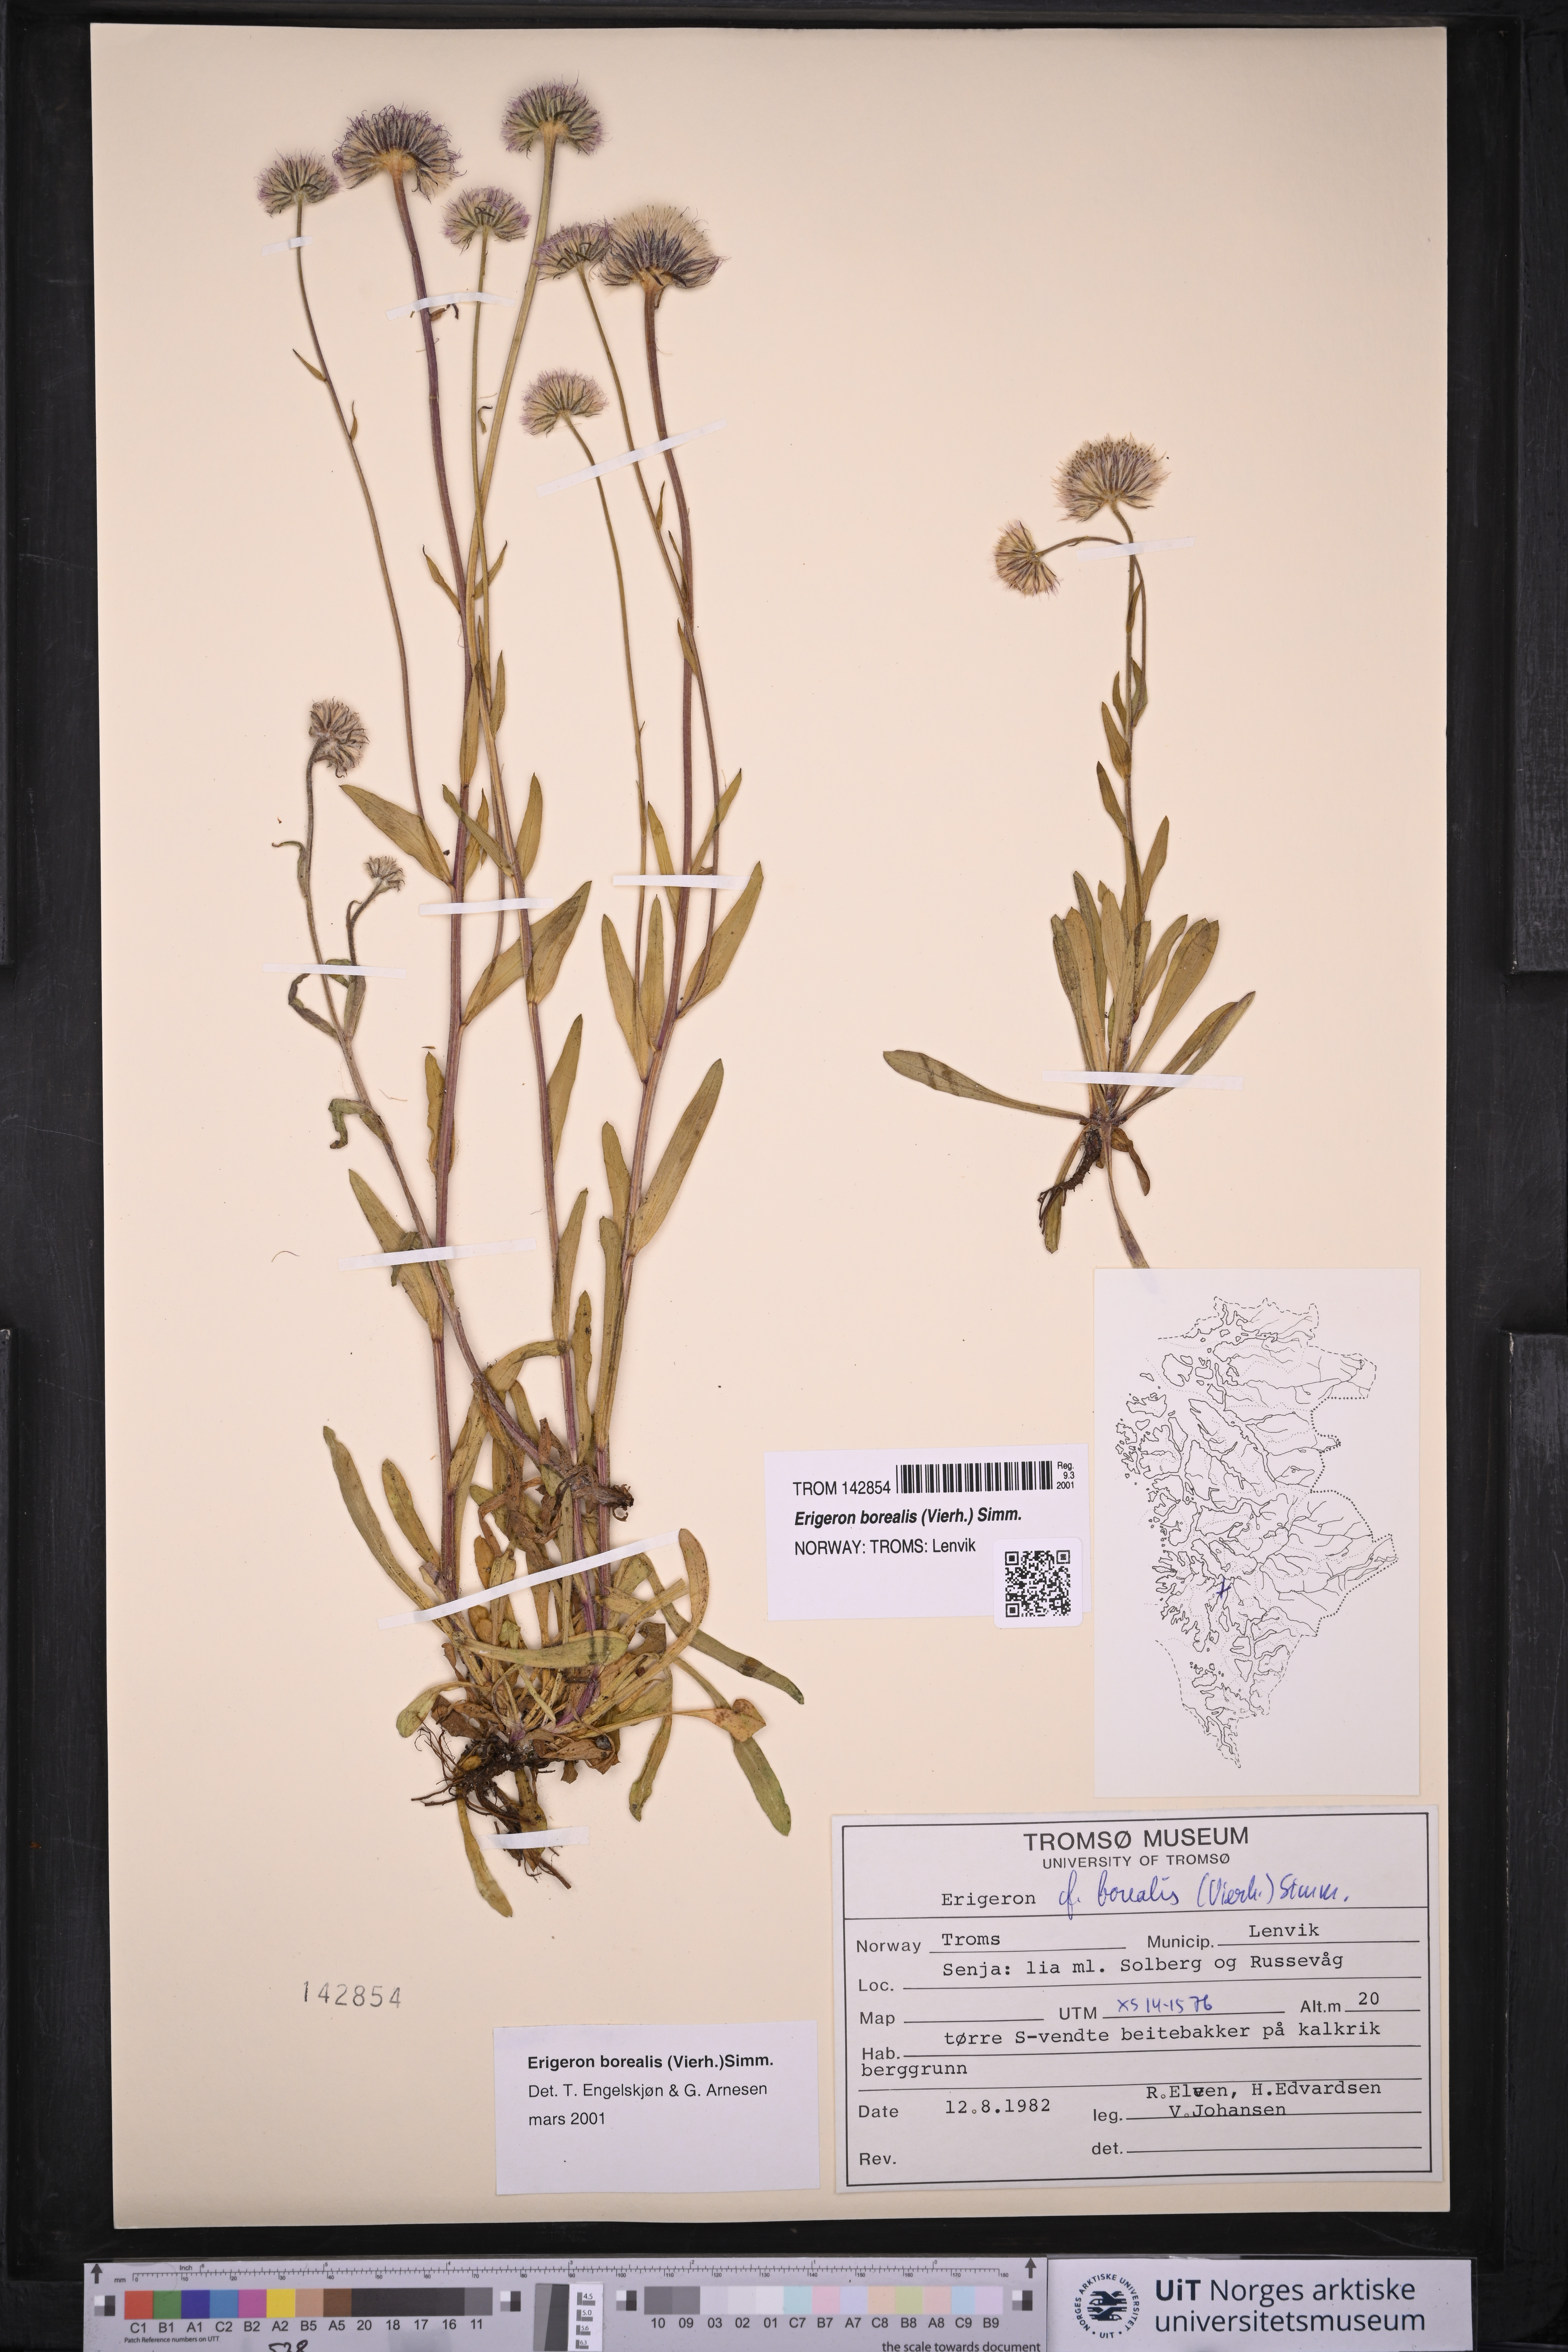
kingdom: Plantae
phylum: Tracheophyta
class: Magnoliopsida
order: Asterales
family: Asteraceae
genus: Erigeron
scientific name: Erigeron borealis
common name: Alpine fleabane
